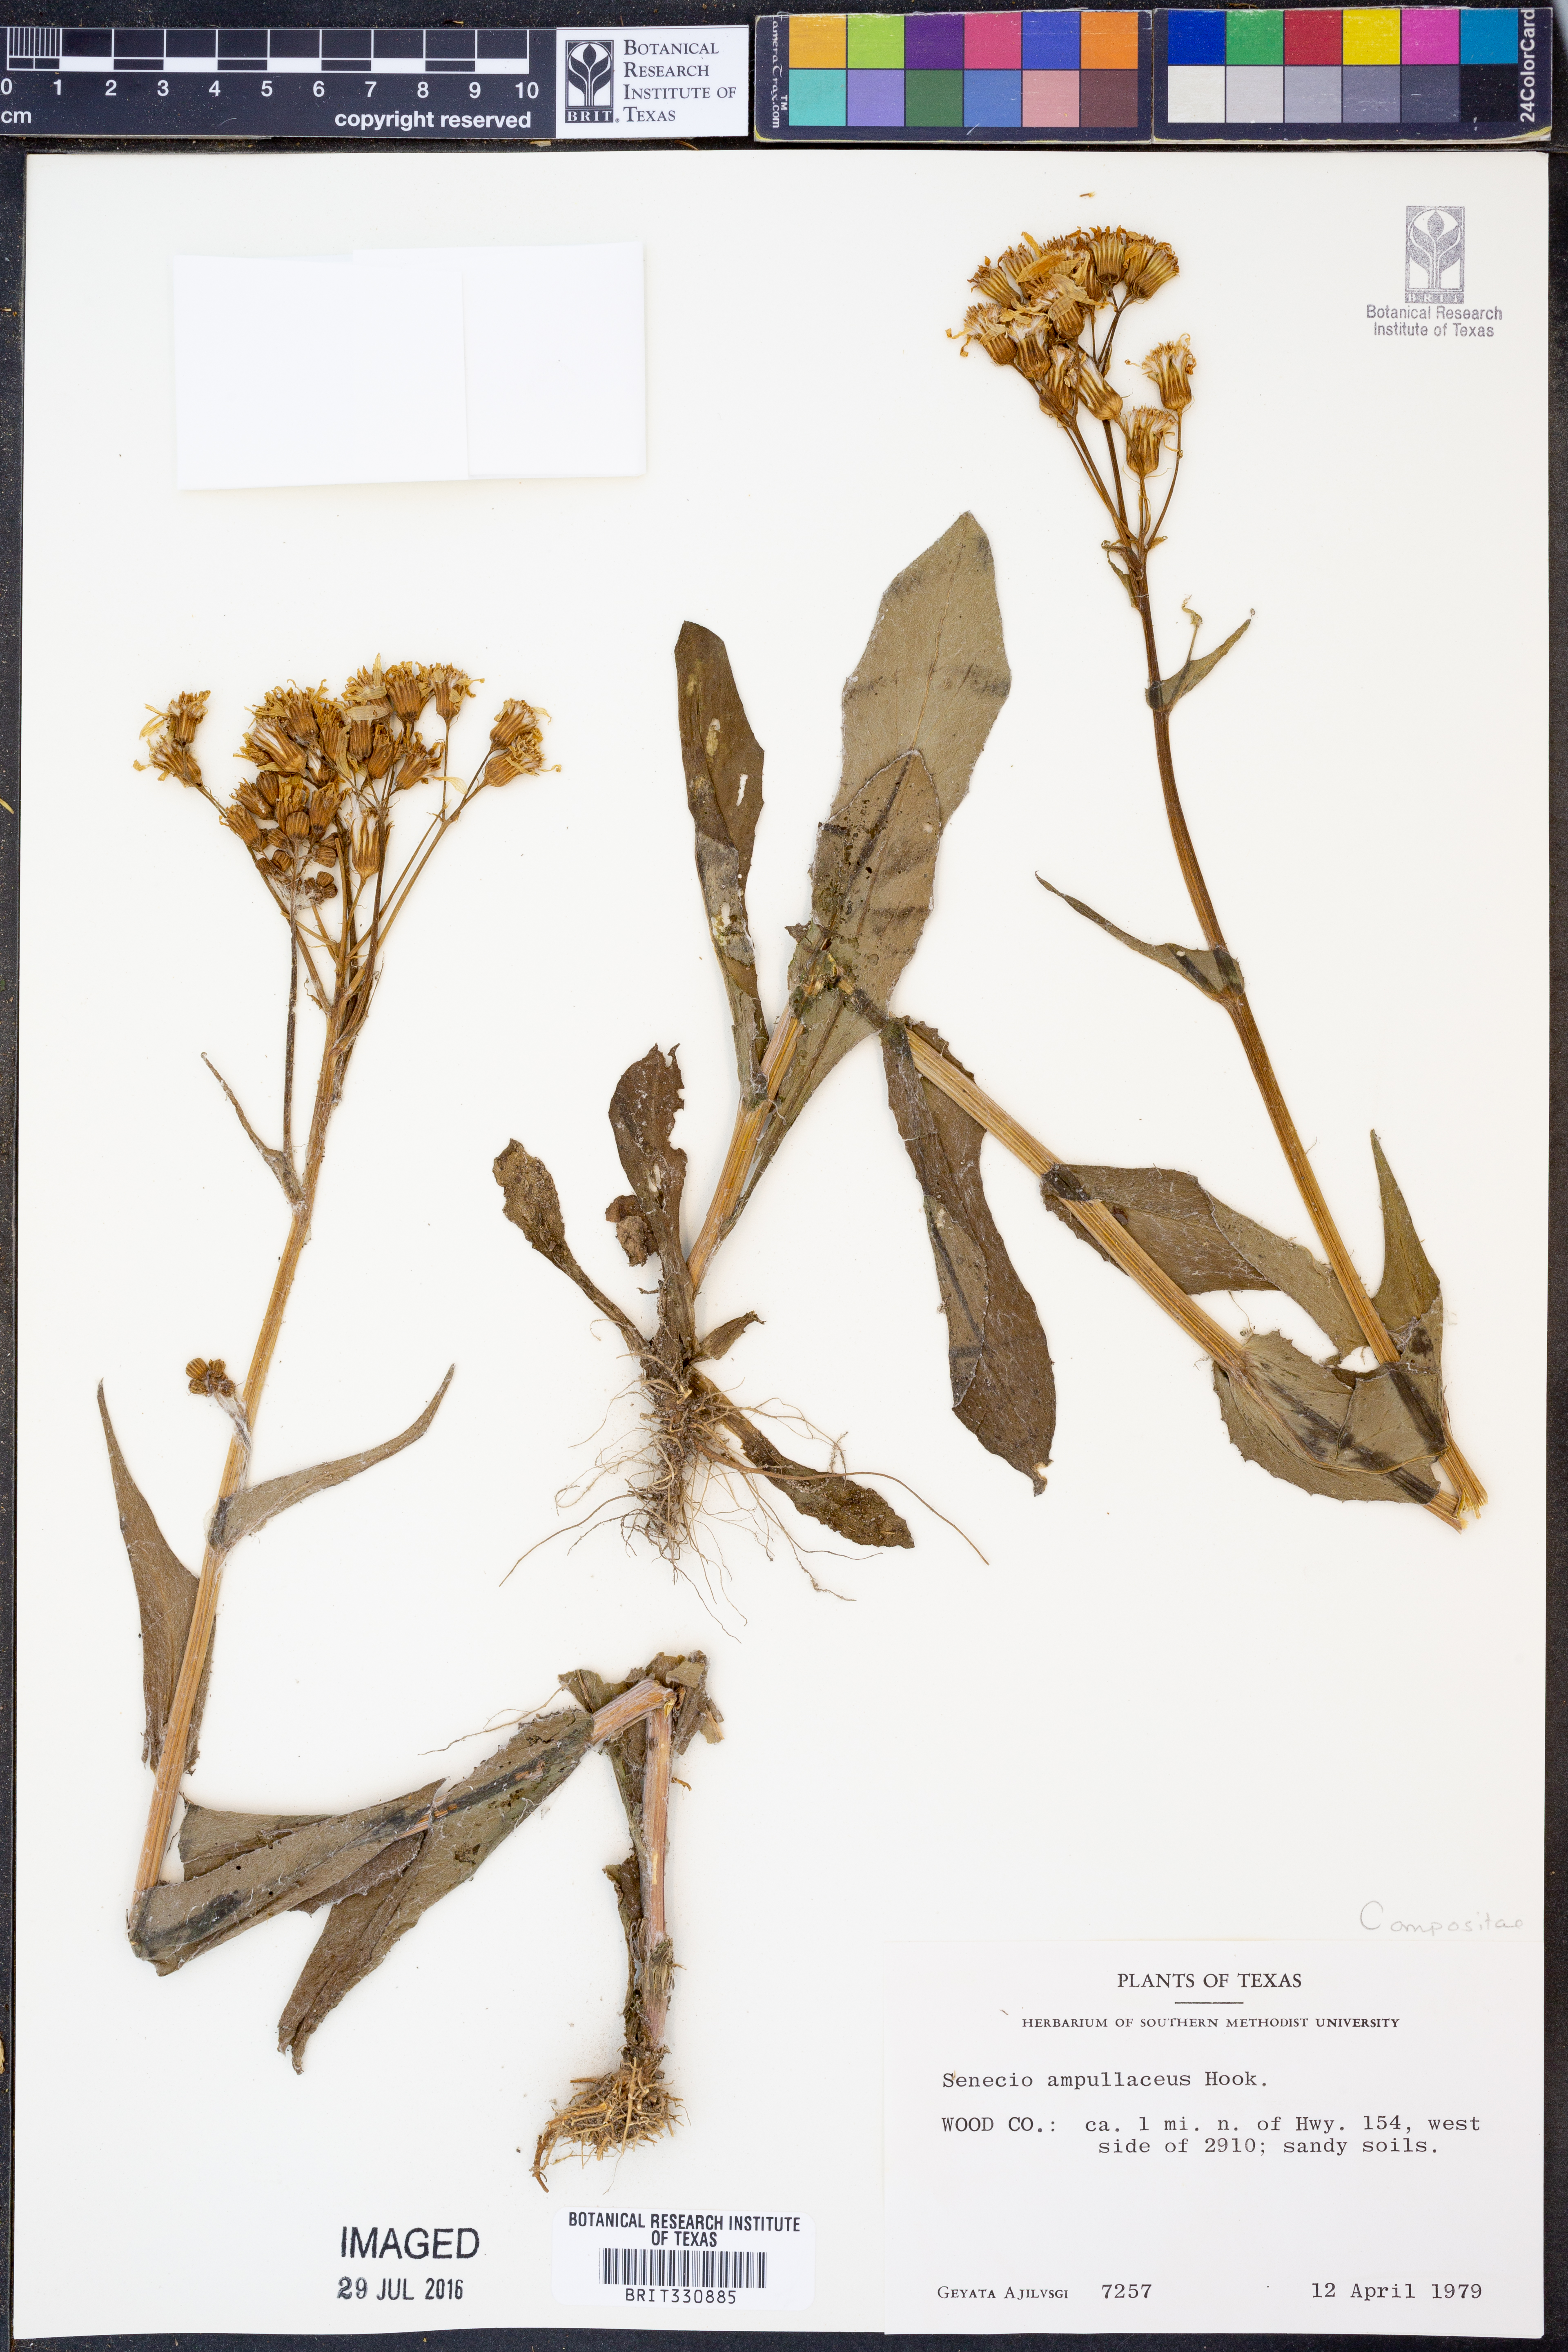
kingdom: Plantae
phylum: Tracheophyta
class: Magnoliopsida
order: Asterales
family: Asteraceae
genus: Senecio
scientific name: Senecio ampullaceus
